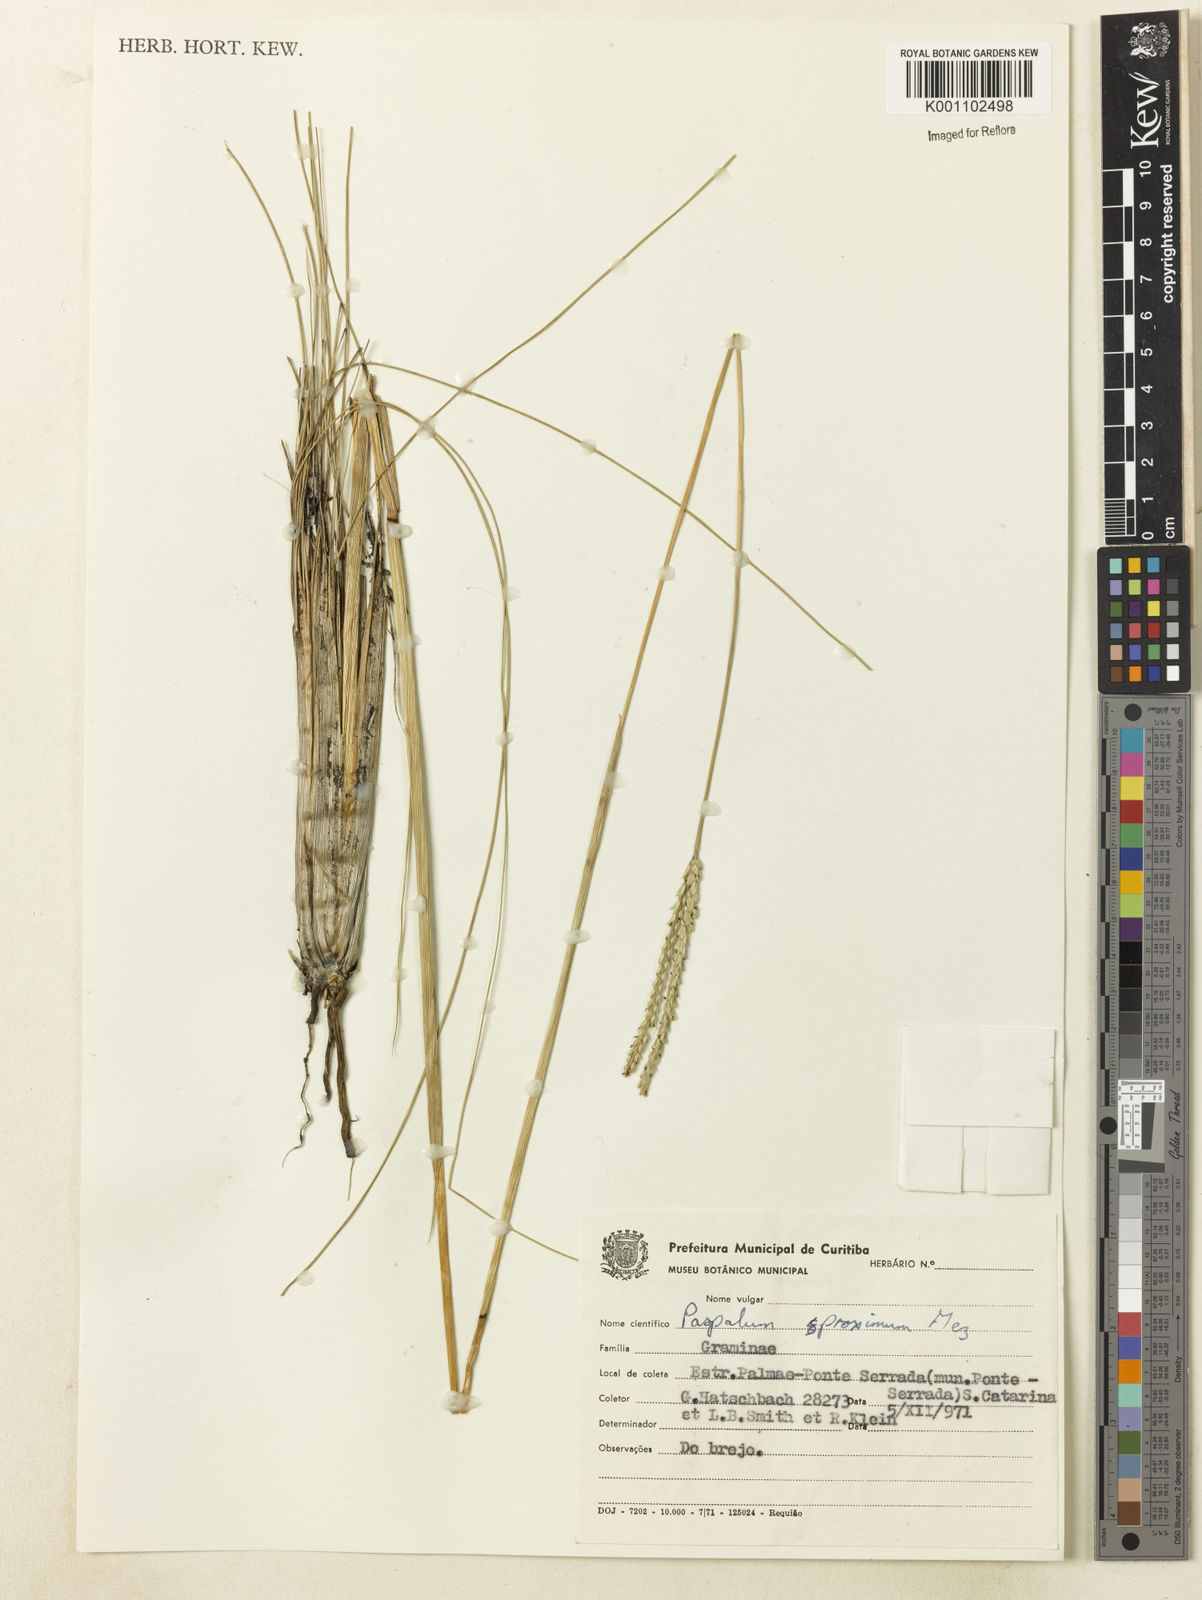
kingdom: Plantae
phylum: Tracheophyta
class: Liliopsida
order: Poales
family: Poaceae
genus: Paspalum
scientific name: Paspalum ellipticum
